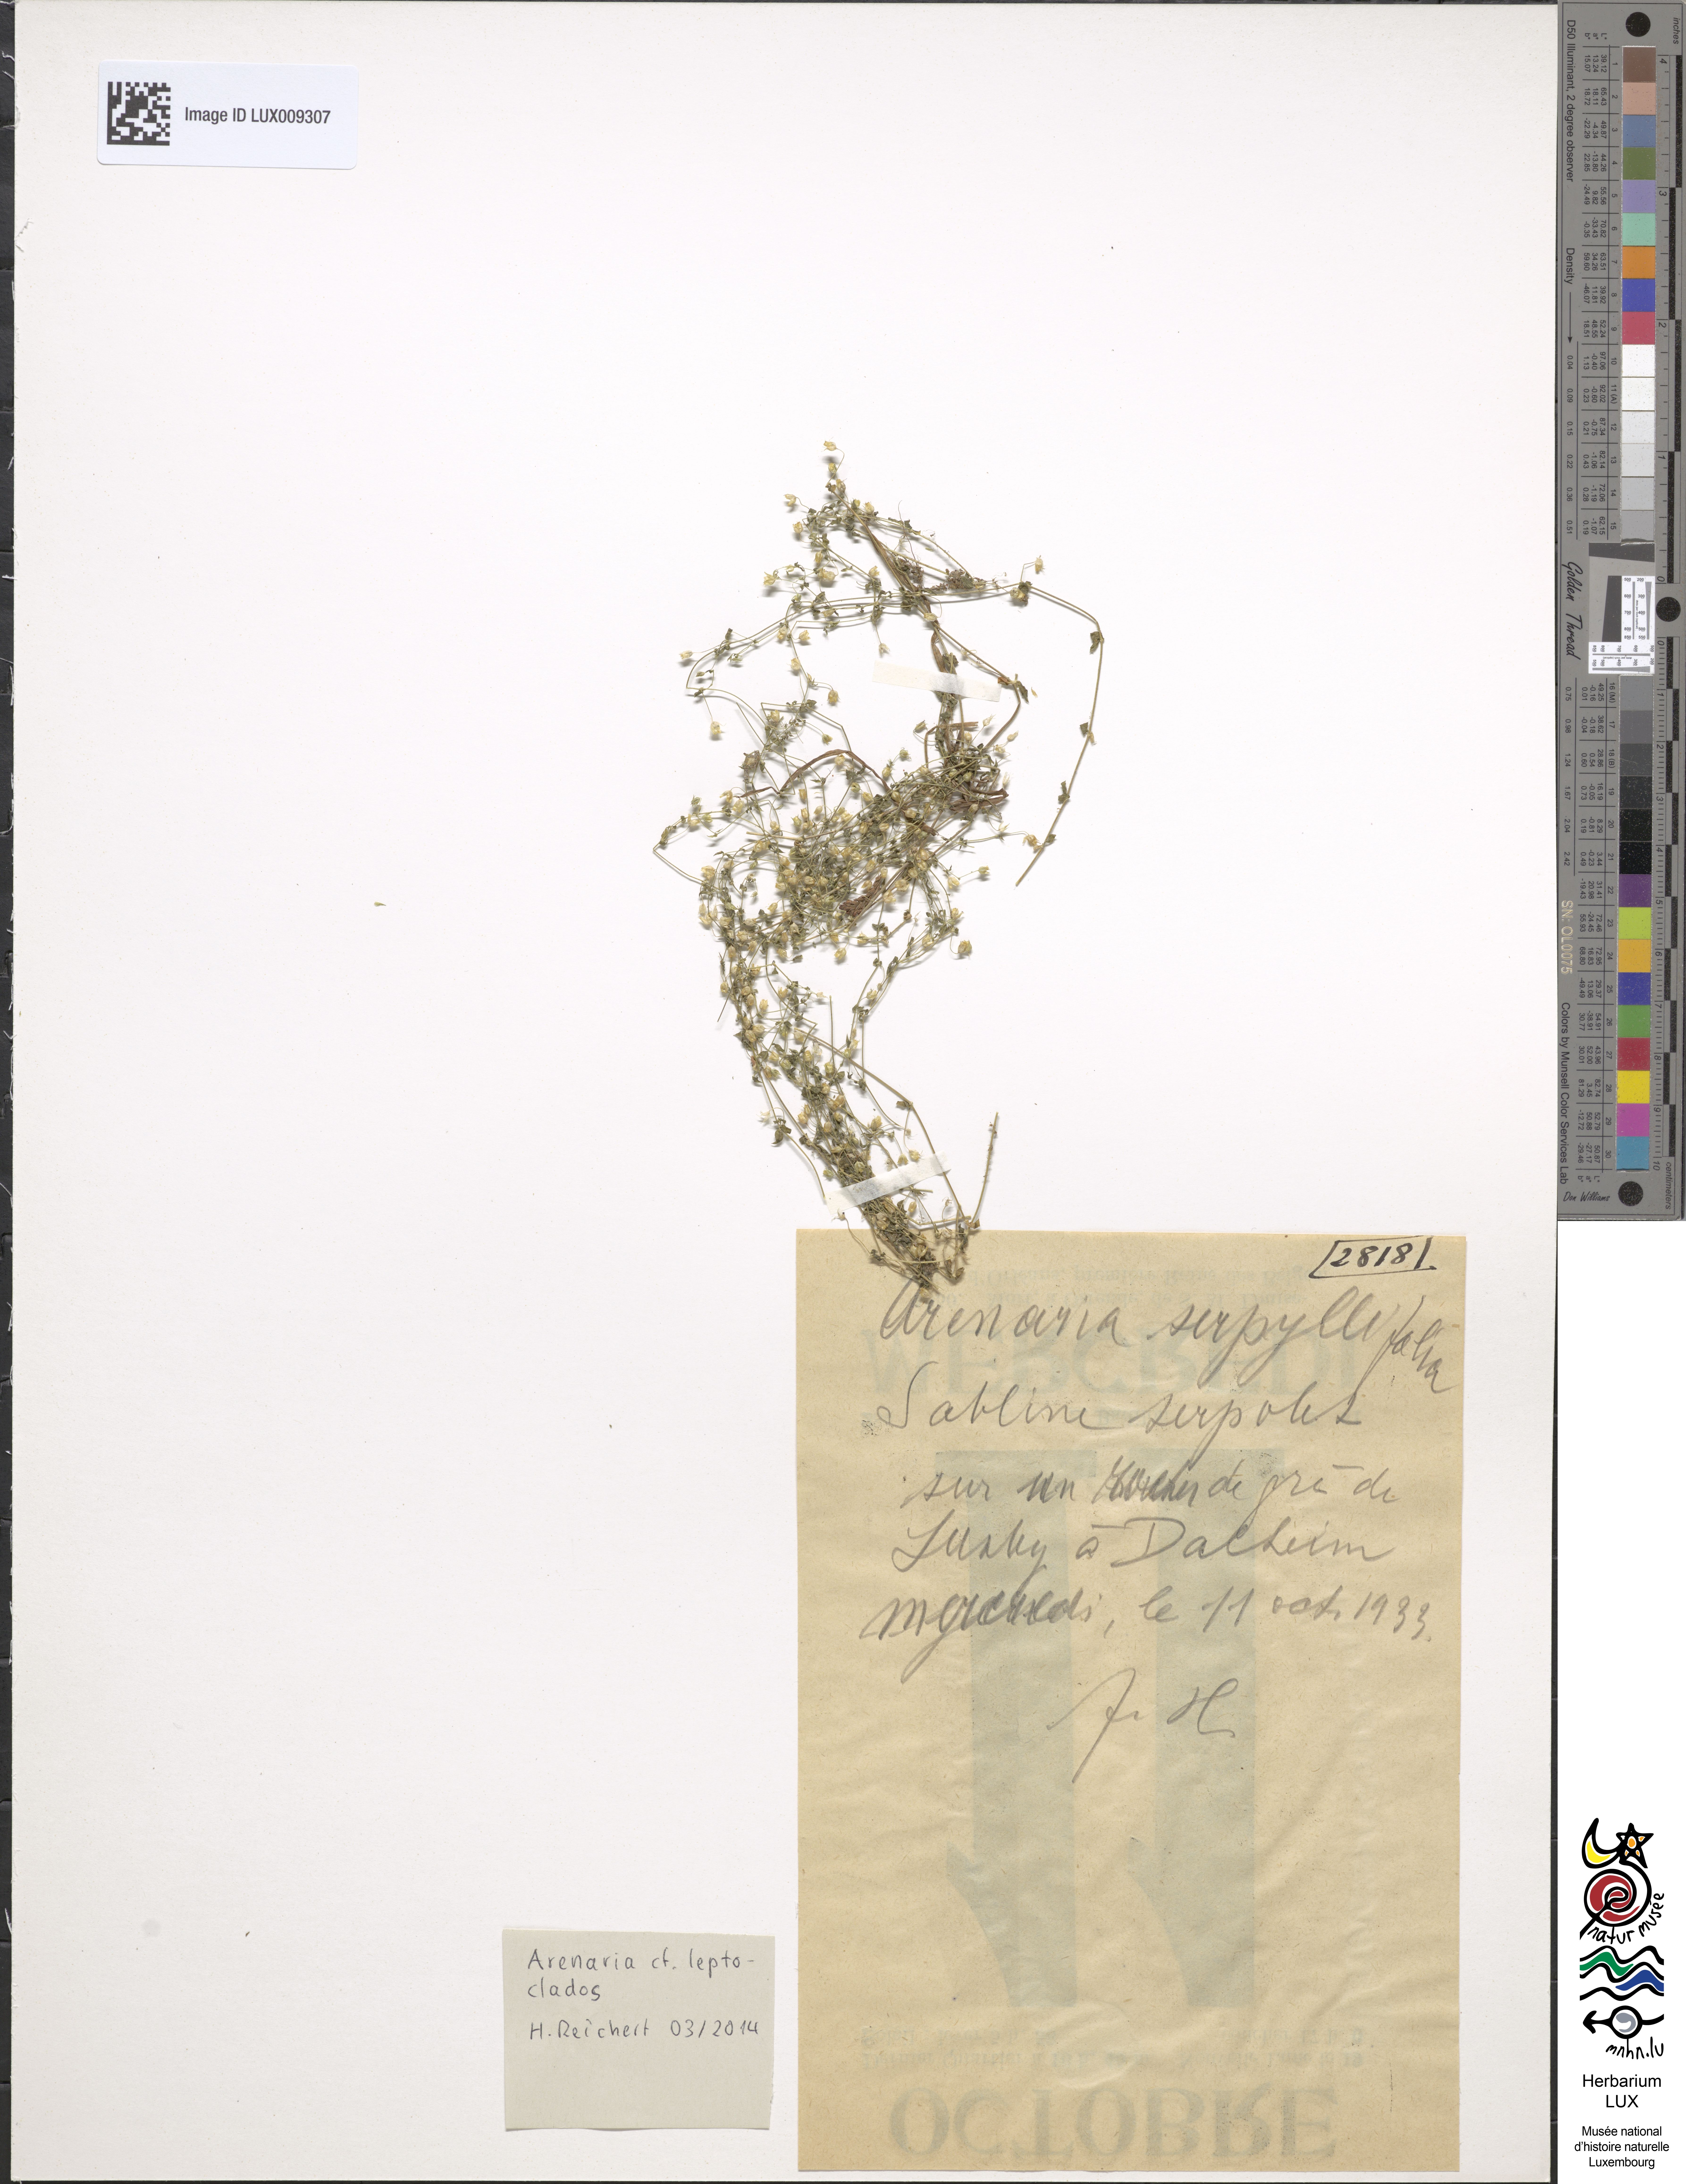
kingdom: Plantae
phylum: Tracheophyta
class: Magnoliopsida
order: Caryophyllales
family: Caryophyllaceae
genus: Arenaria
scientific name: Arenaria leptoclados
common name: Thyme-leaved sandwort
